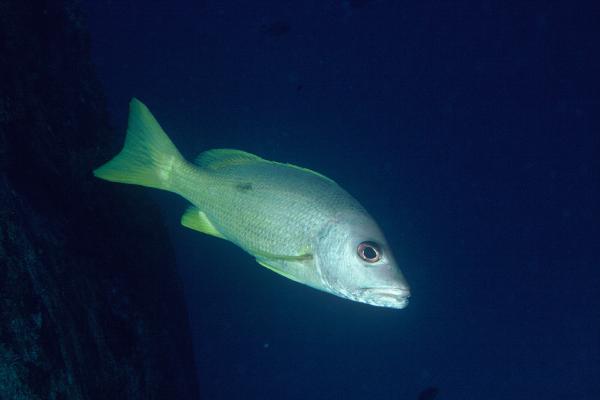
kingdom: Animalia
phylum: Chordata
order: Perciformes
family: Lutjanidae
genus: Lutjanus
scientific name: Lutjanus monostigma
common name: Onespot snapper
